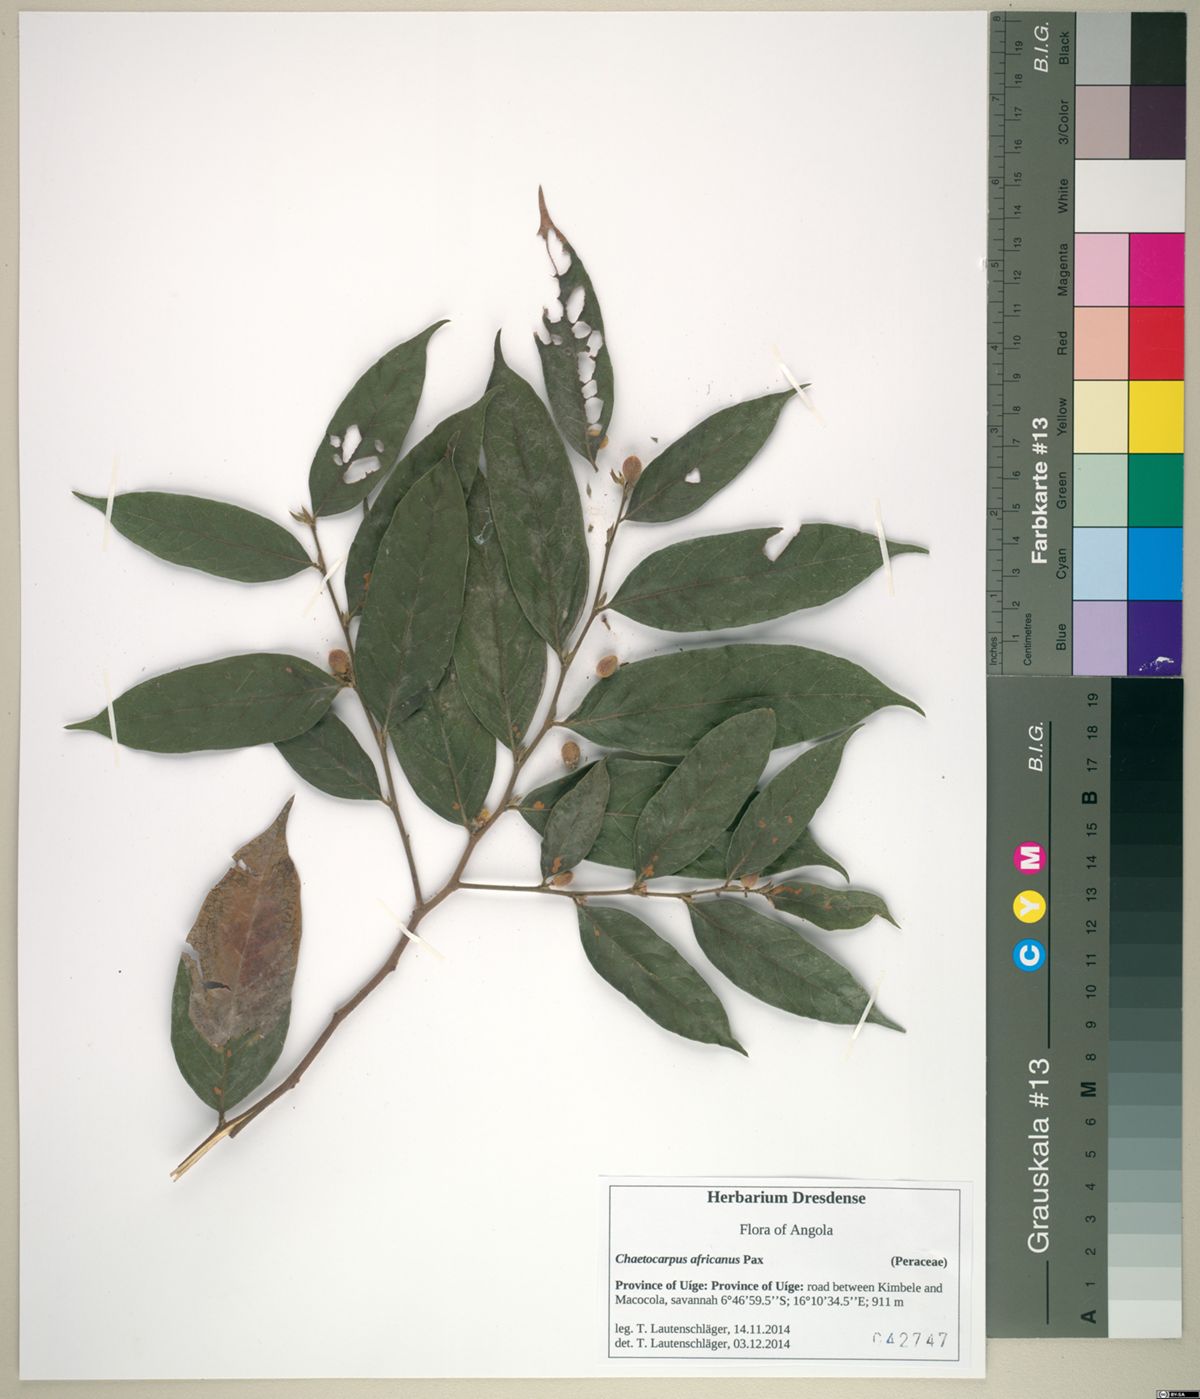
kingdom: Plantae
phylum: Tracheophyta
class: Magnoliopsida
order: Malpighiales
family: Peraceae
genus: Chaetocarpus
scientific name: Chaetocarpus africanus
